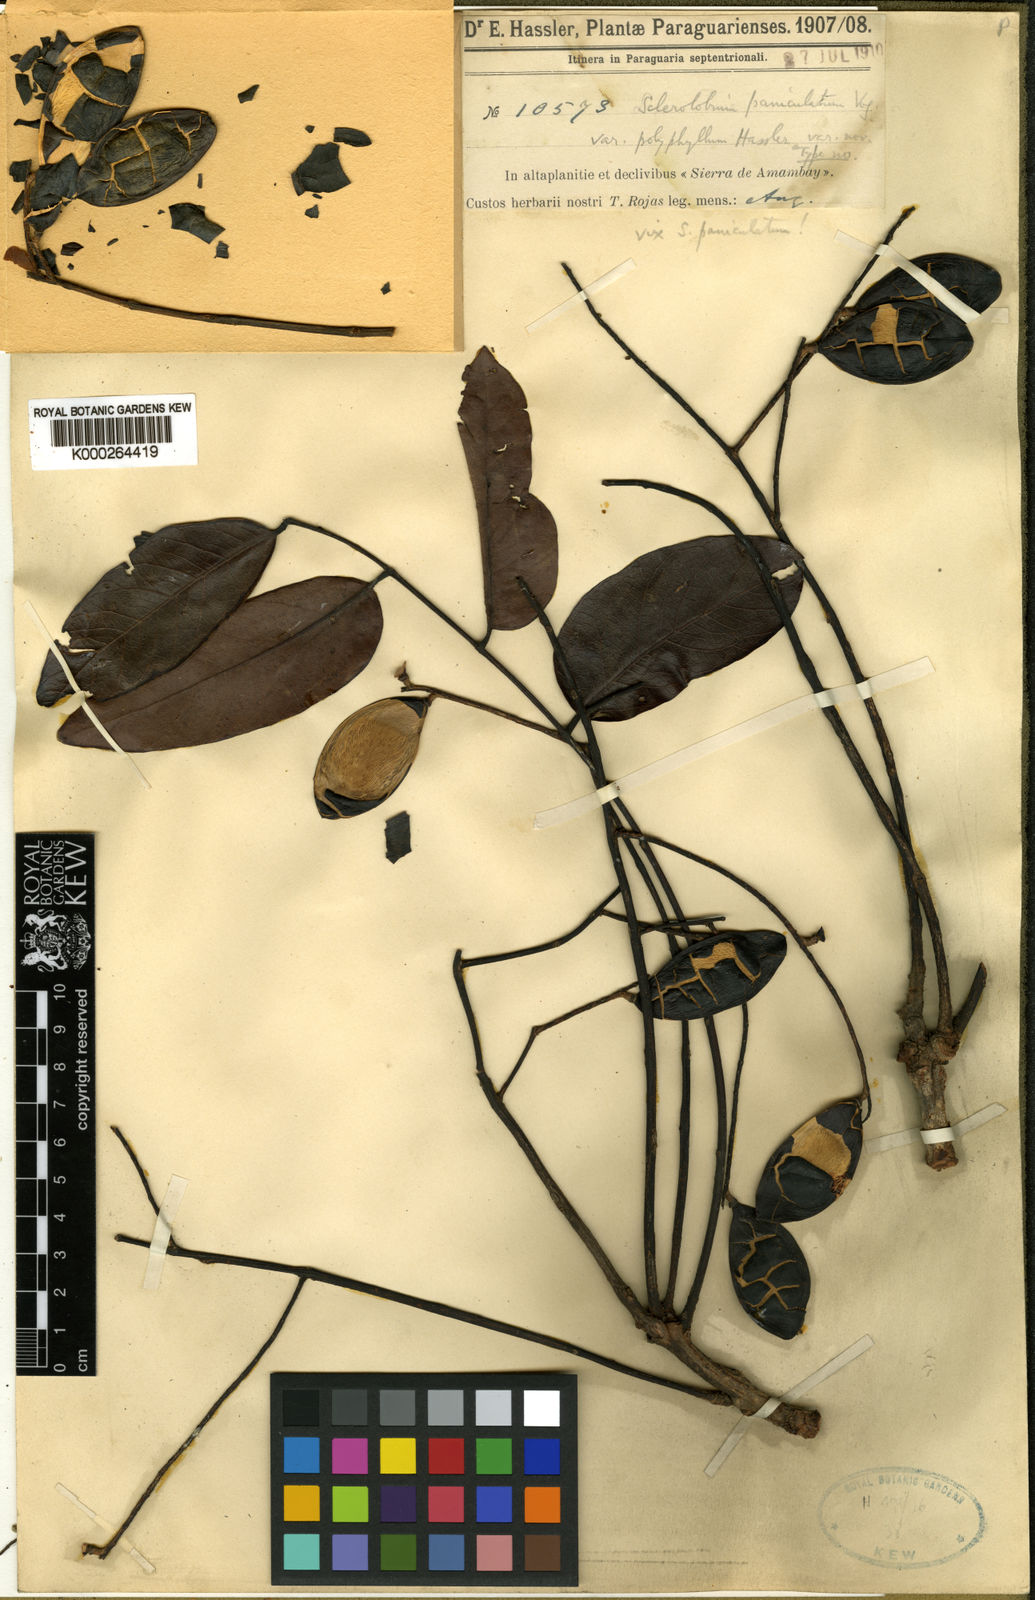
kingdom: Plantae
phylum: Tracheophyta
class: Magnoliopsida
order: Fabales
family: Fabaceae
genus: Tachigali
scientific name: Tachigali vulgaris
